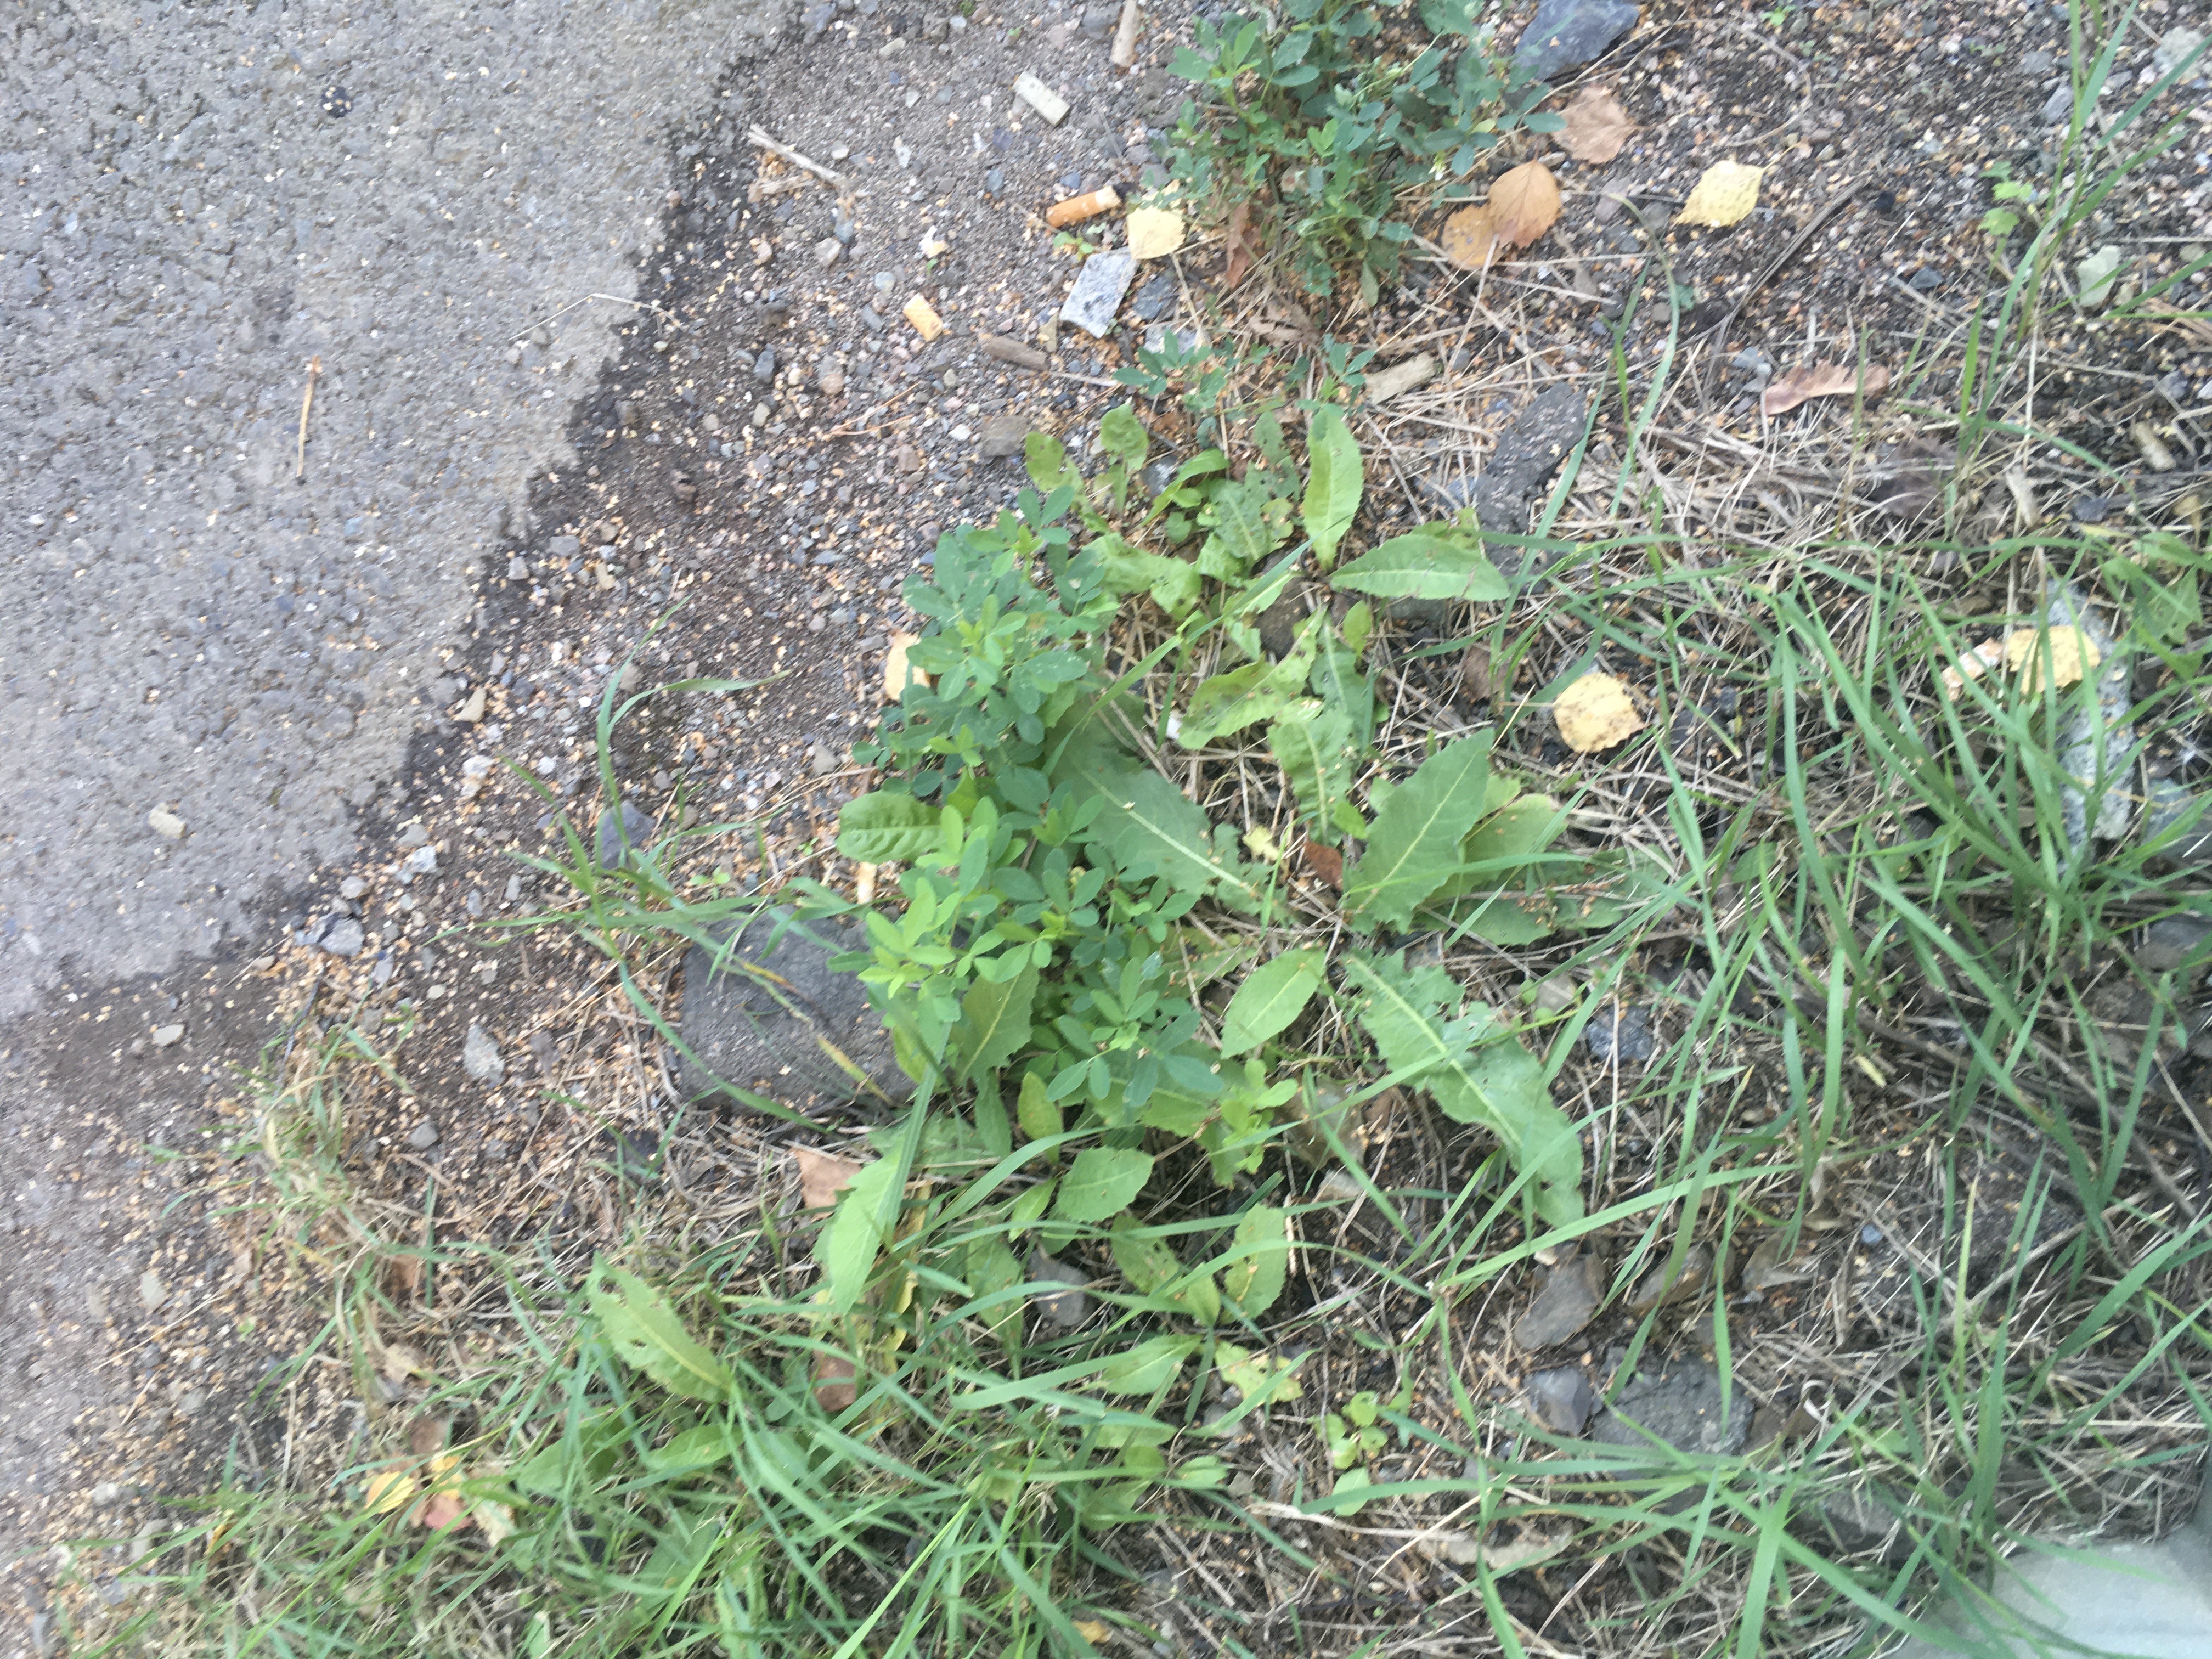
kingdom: Plantae
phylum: Tracheophyta
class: Magnoliopsida
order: Fabales
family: Fabaceae
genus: Melilotus
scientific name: Melilotus albus
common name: hvitsteinkløver
